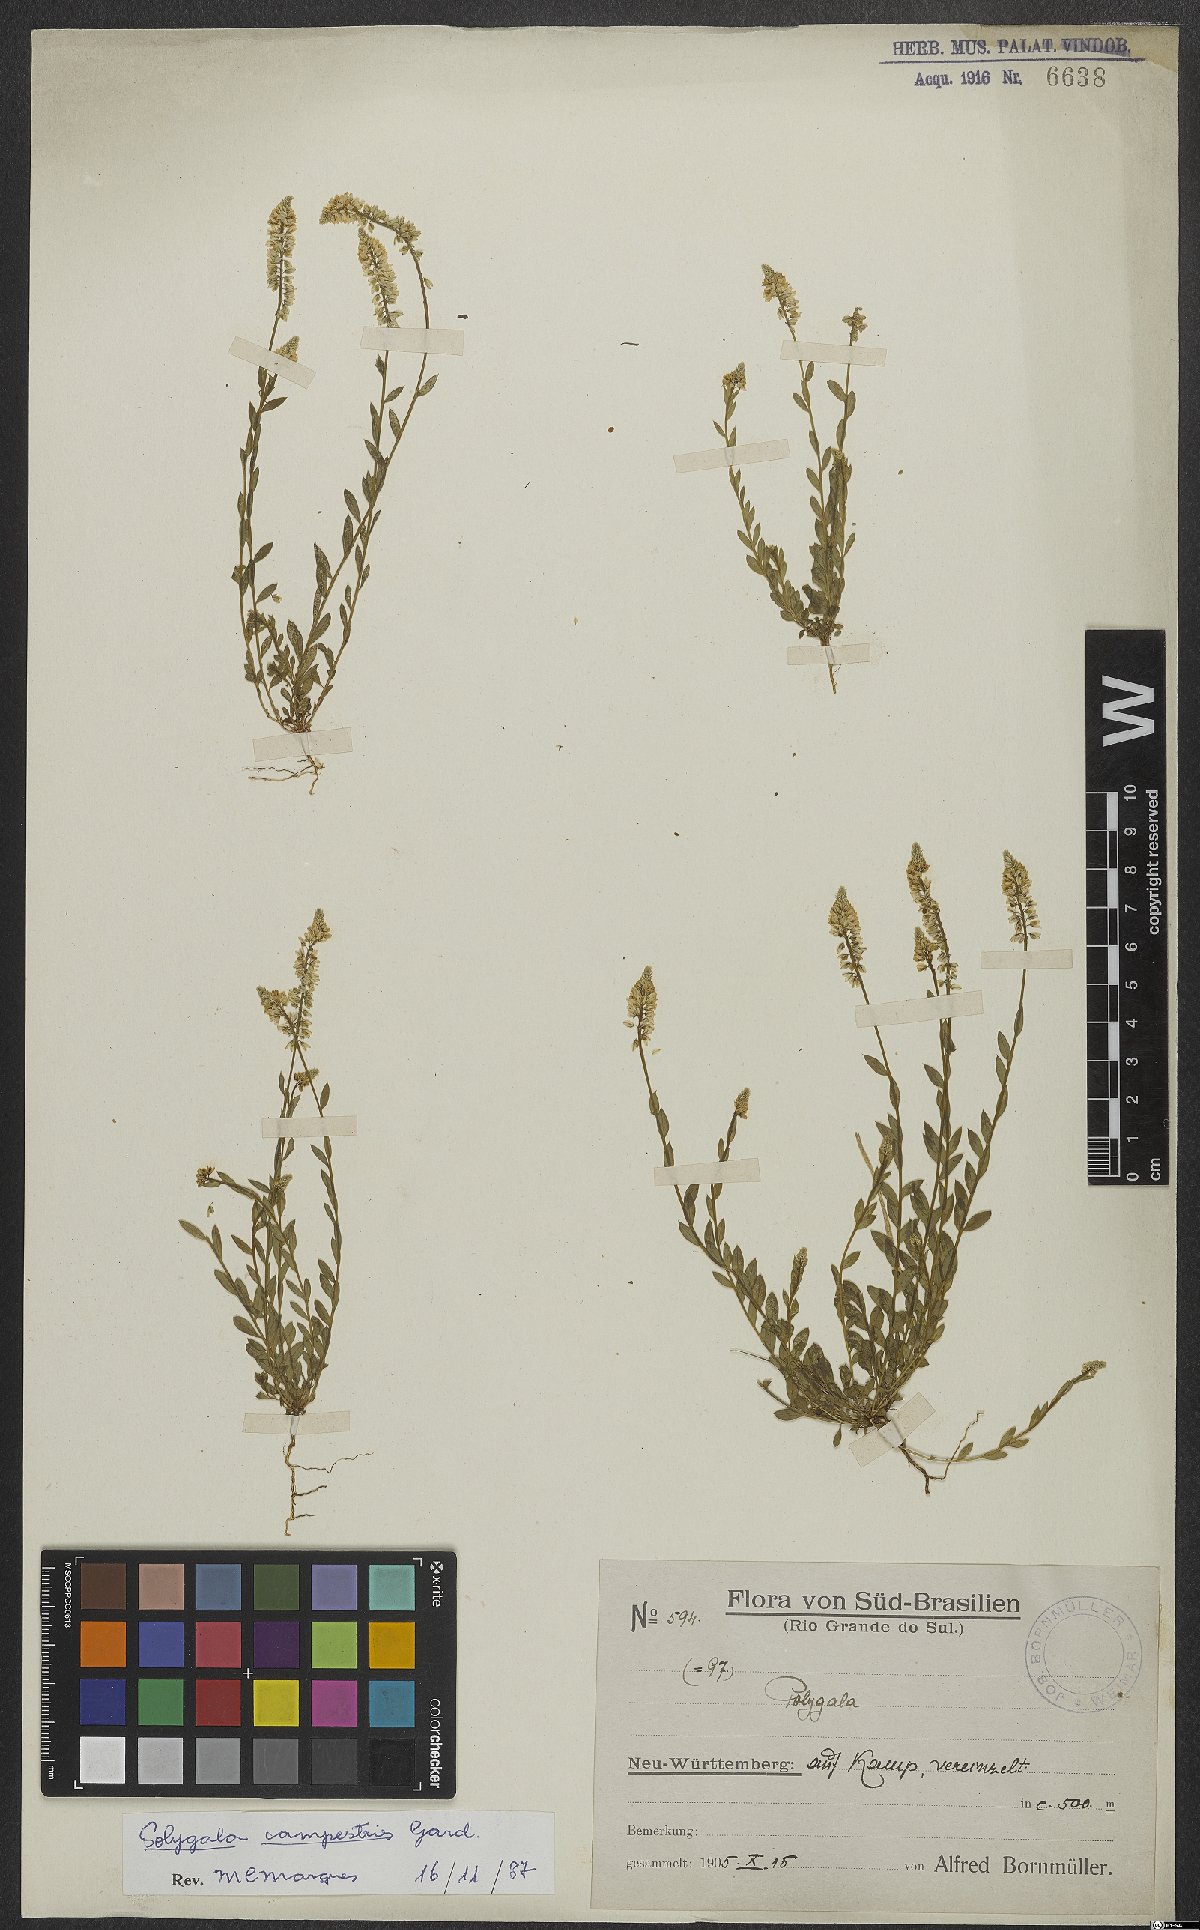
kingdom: Plantae
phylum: Tracheophyta
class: Magnoliopsida
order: Fabales
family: Polygalaceae
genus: Polygala
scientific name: Polygala campestris
